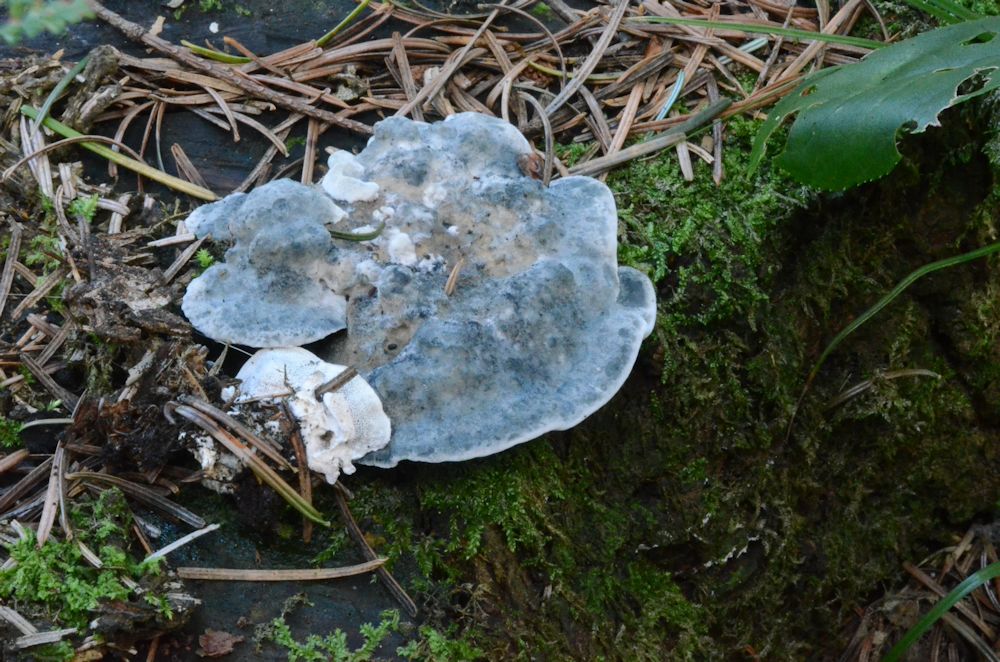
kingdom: Fungi
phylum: Basidiomycota
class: Agaricomycetes
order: Polyporales
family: Polyporaceae
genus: Cyanosporus
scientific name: Cyanosporus caesius
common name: blålig kødporesvamp
